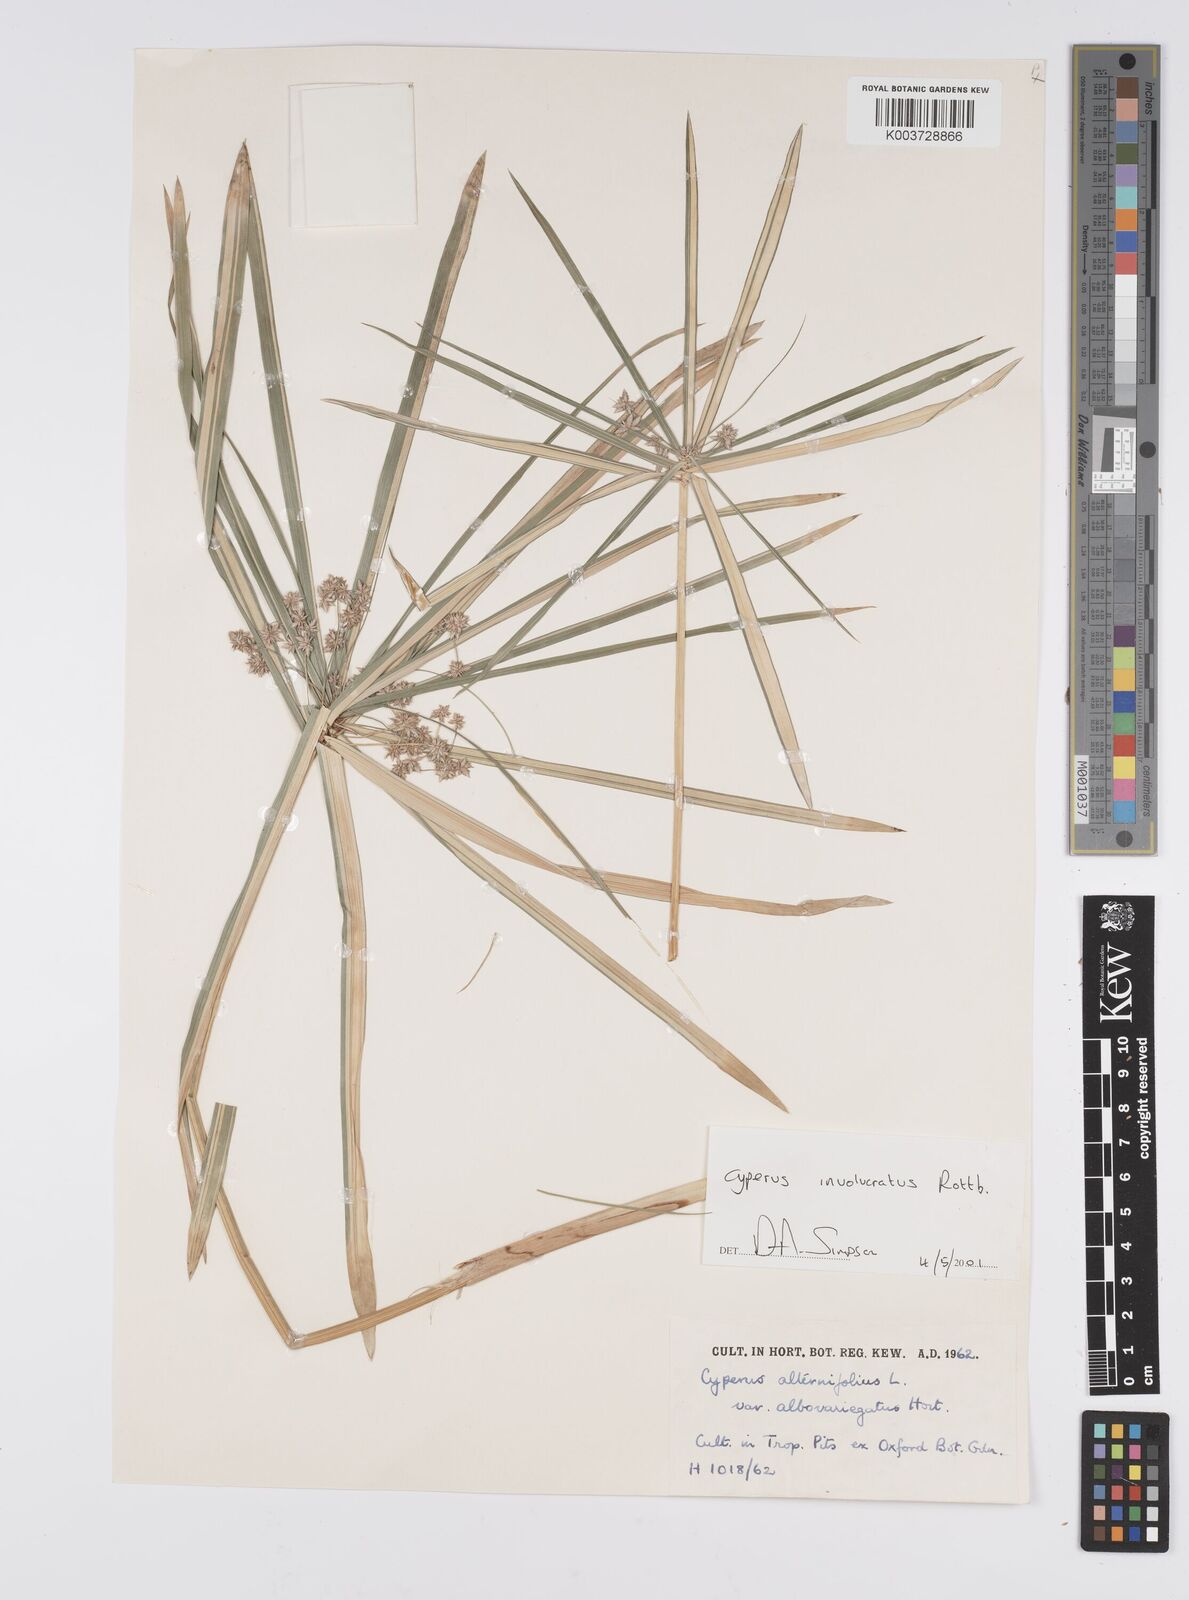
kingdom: Plantae
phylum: Tracheophyta
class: Liliopsida
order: Poales
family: Cyperaceae
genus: Cyperus
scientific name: Cyperus alternifolius
